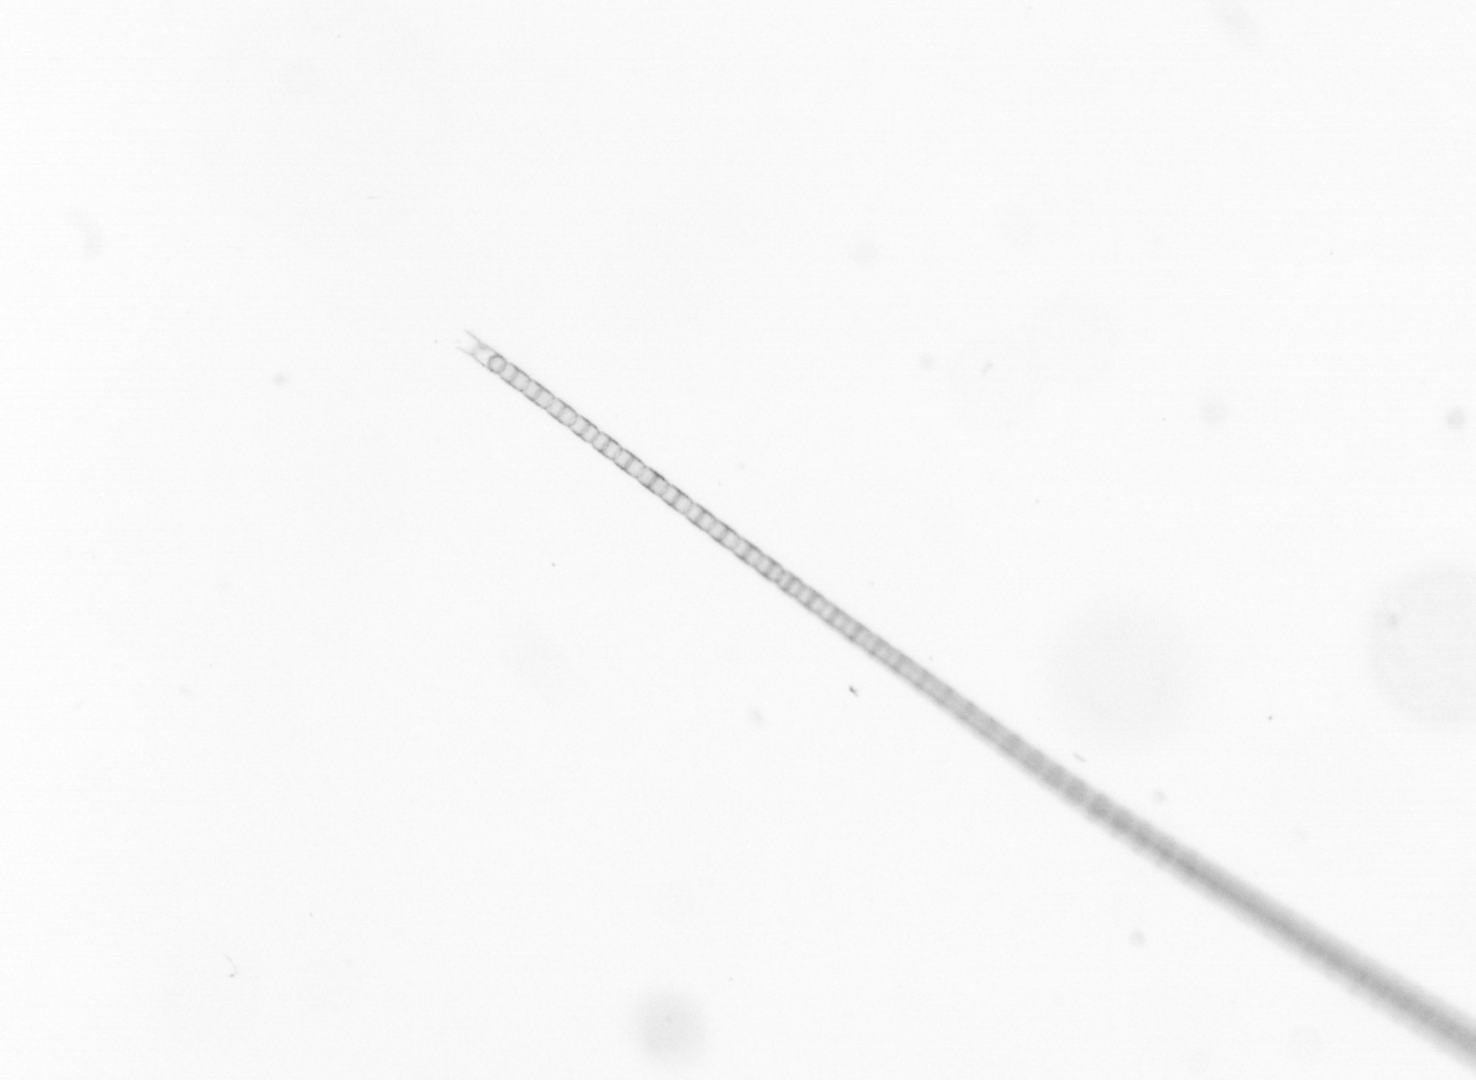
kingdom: Chromista
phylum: Ochrophyta
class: Bacillariophyceae
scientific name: Bacillariophyceae
